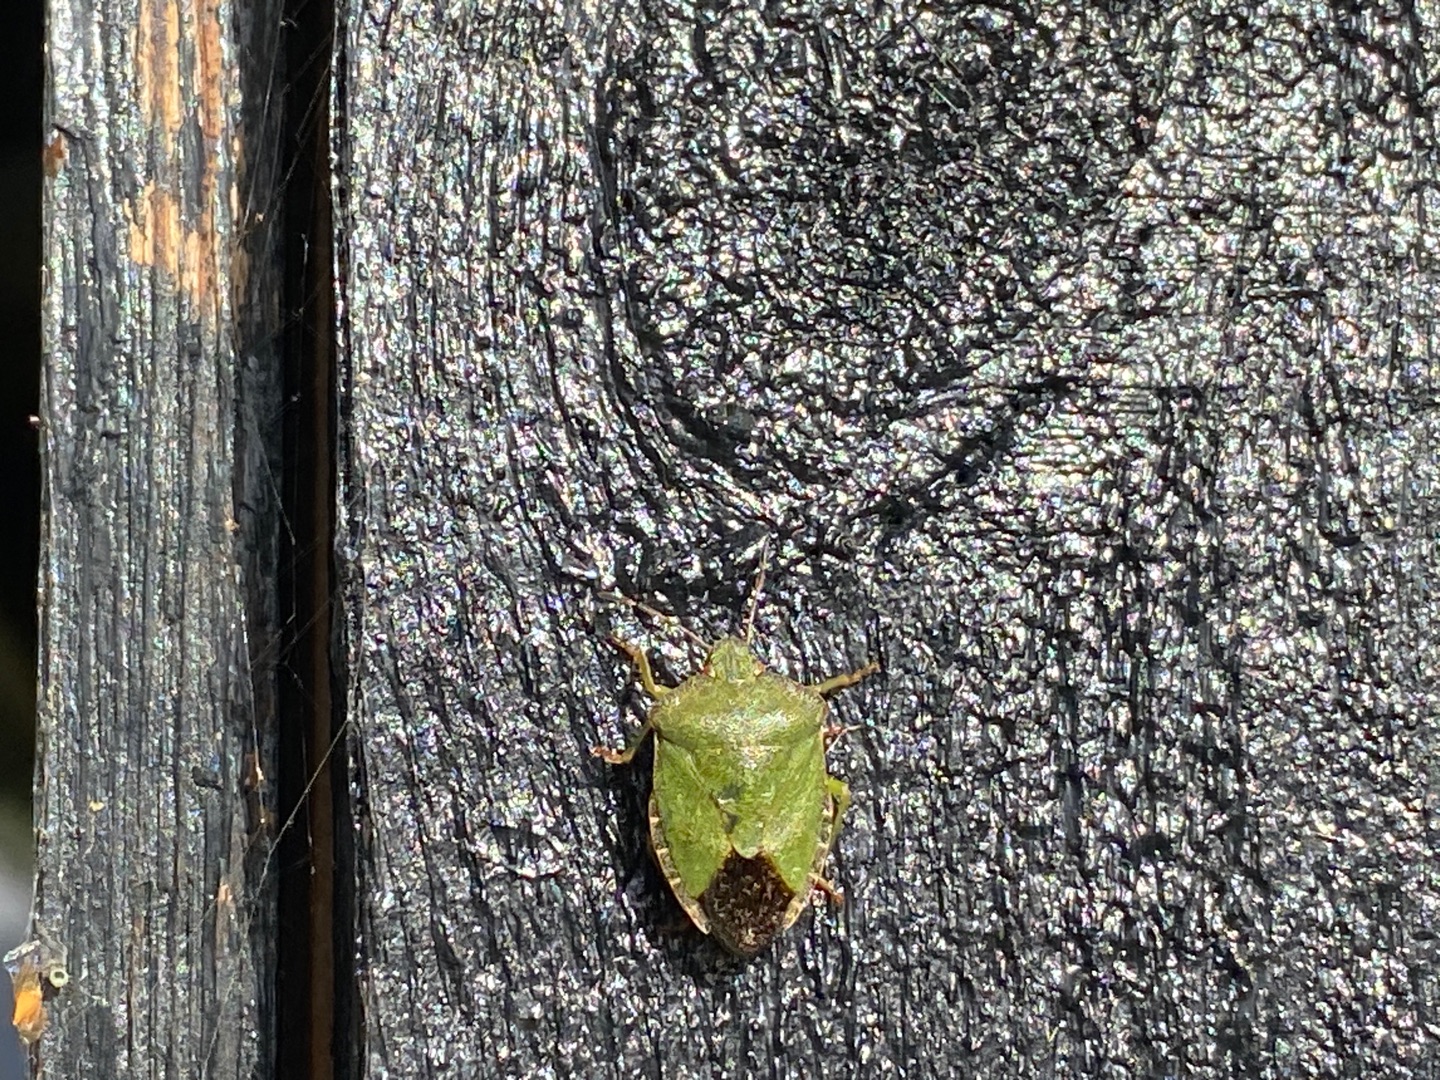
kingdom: Animalia
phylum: Arthropoda
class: Insecta
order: Hemiptera
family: Pentatomidae
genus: Palomena
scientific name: Palomena prasina
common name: Grøn bredtæge
